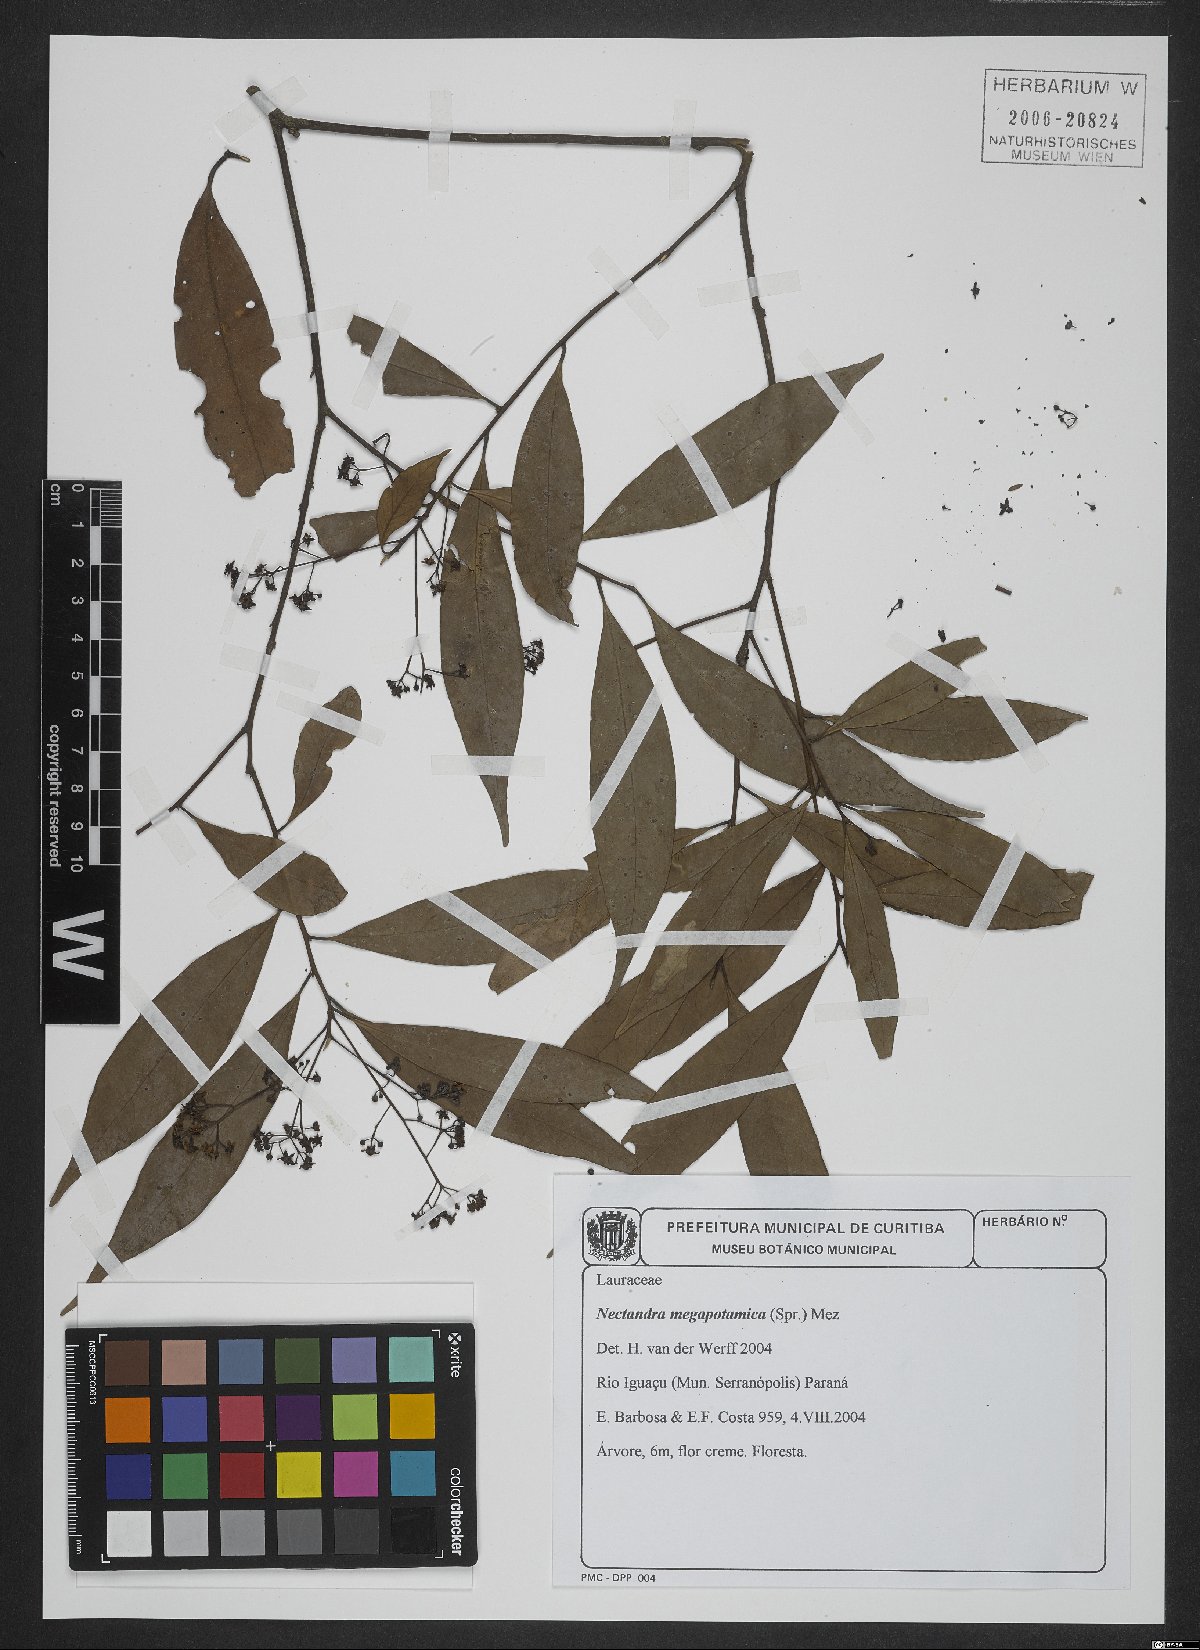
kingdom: Plantae
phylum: Tracheophyta
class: Magnoliopsida
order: Laurales
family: Lauraceae
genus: Nectandra
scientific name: Nectandra megapotamica
